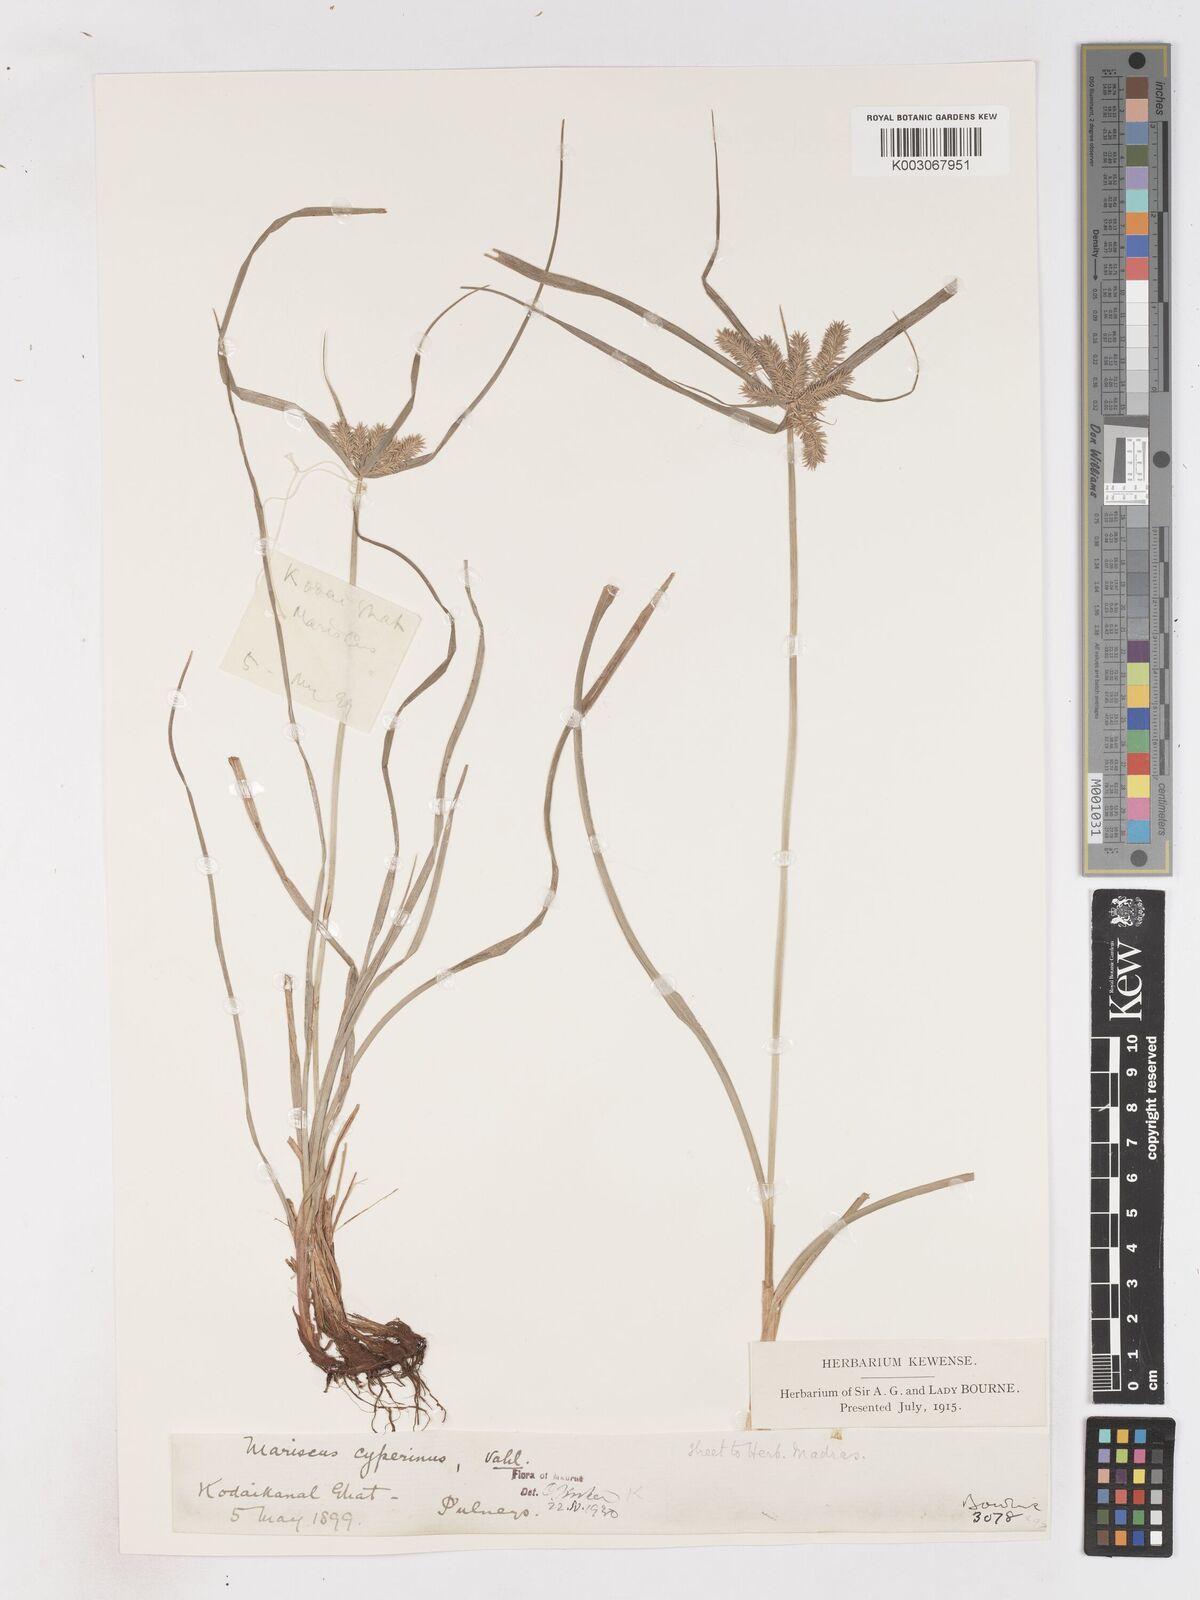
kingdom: Plantae
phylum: Tracheophyta
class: Liliopsida
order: Poales
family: Cyperaceae
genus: Cyperus
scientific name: Cyperus paniceus
